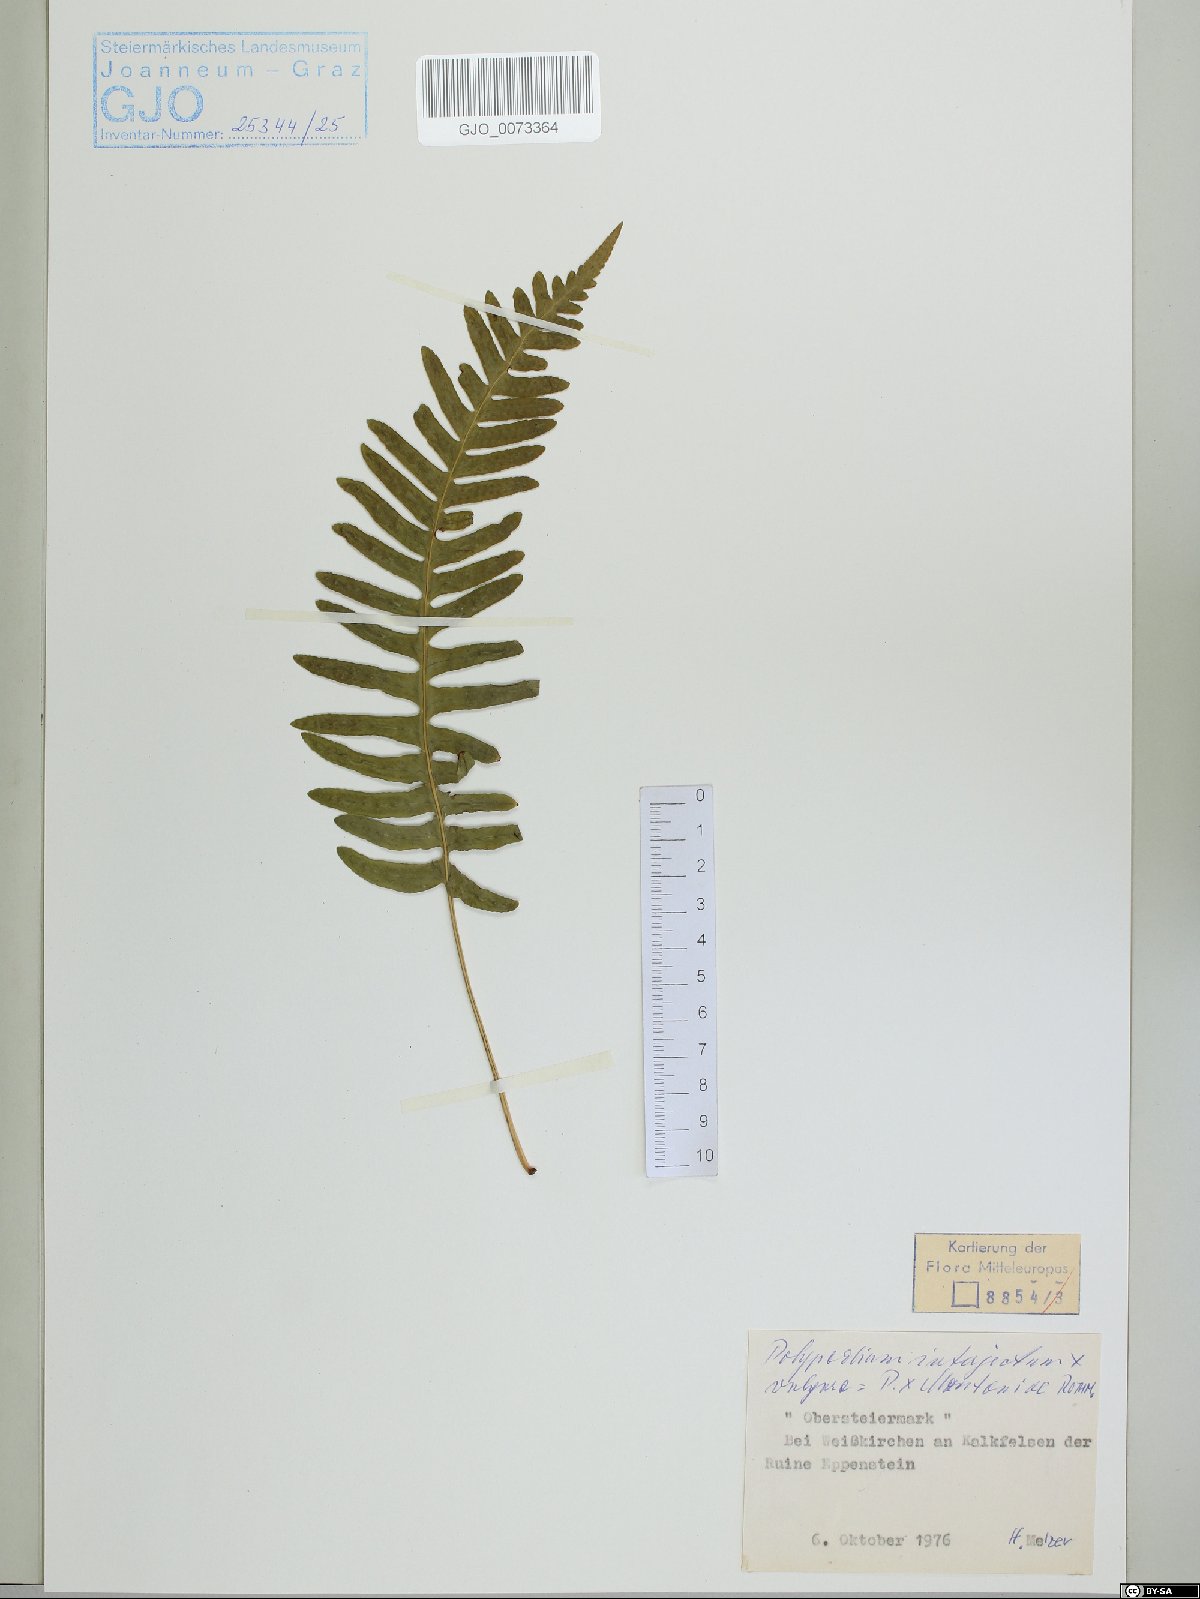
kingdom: Plantae
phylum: Tracheophyta
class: Polypodiopsida
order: Polypodiales
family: Polypodiaceae
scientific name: Polypodiaceae
